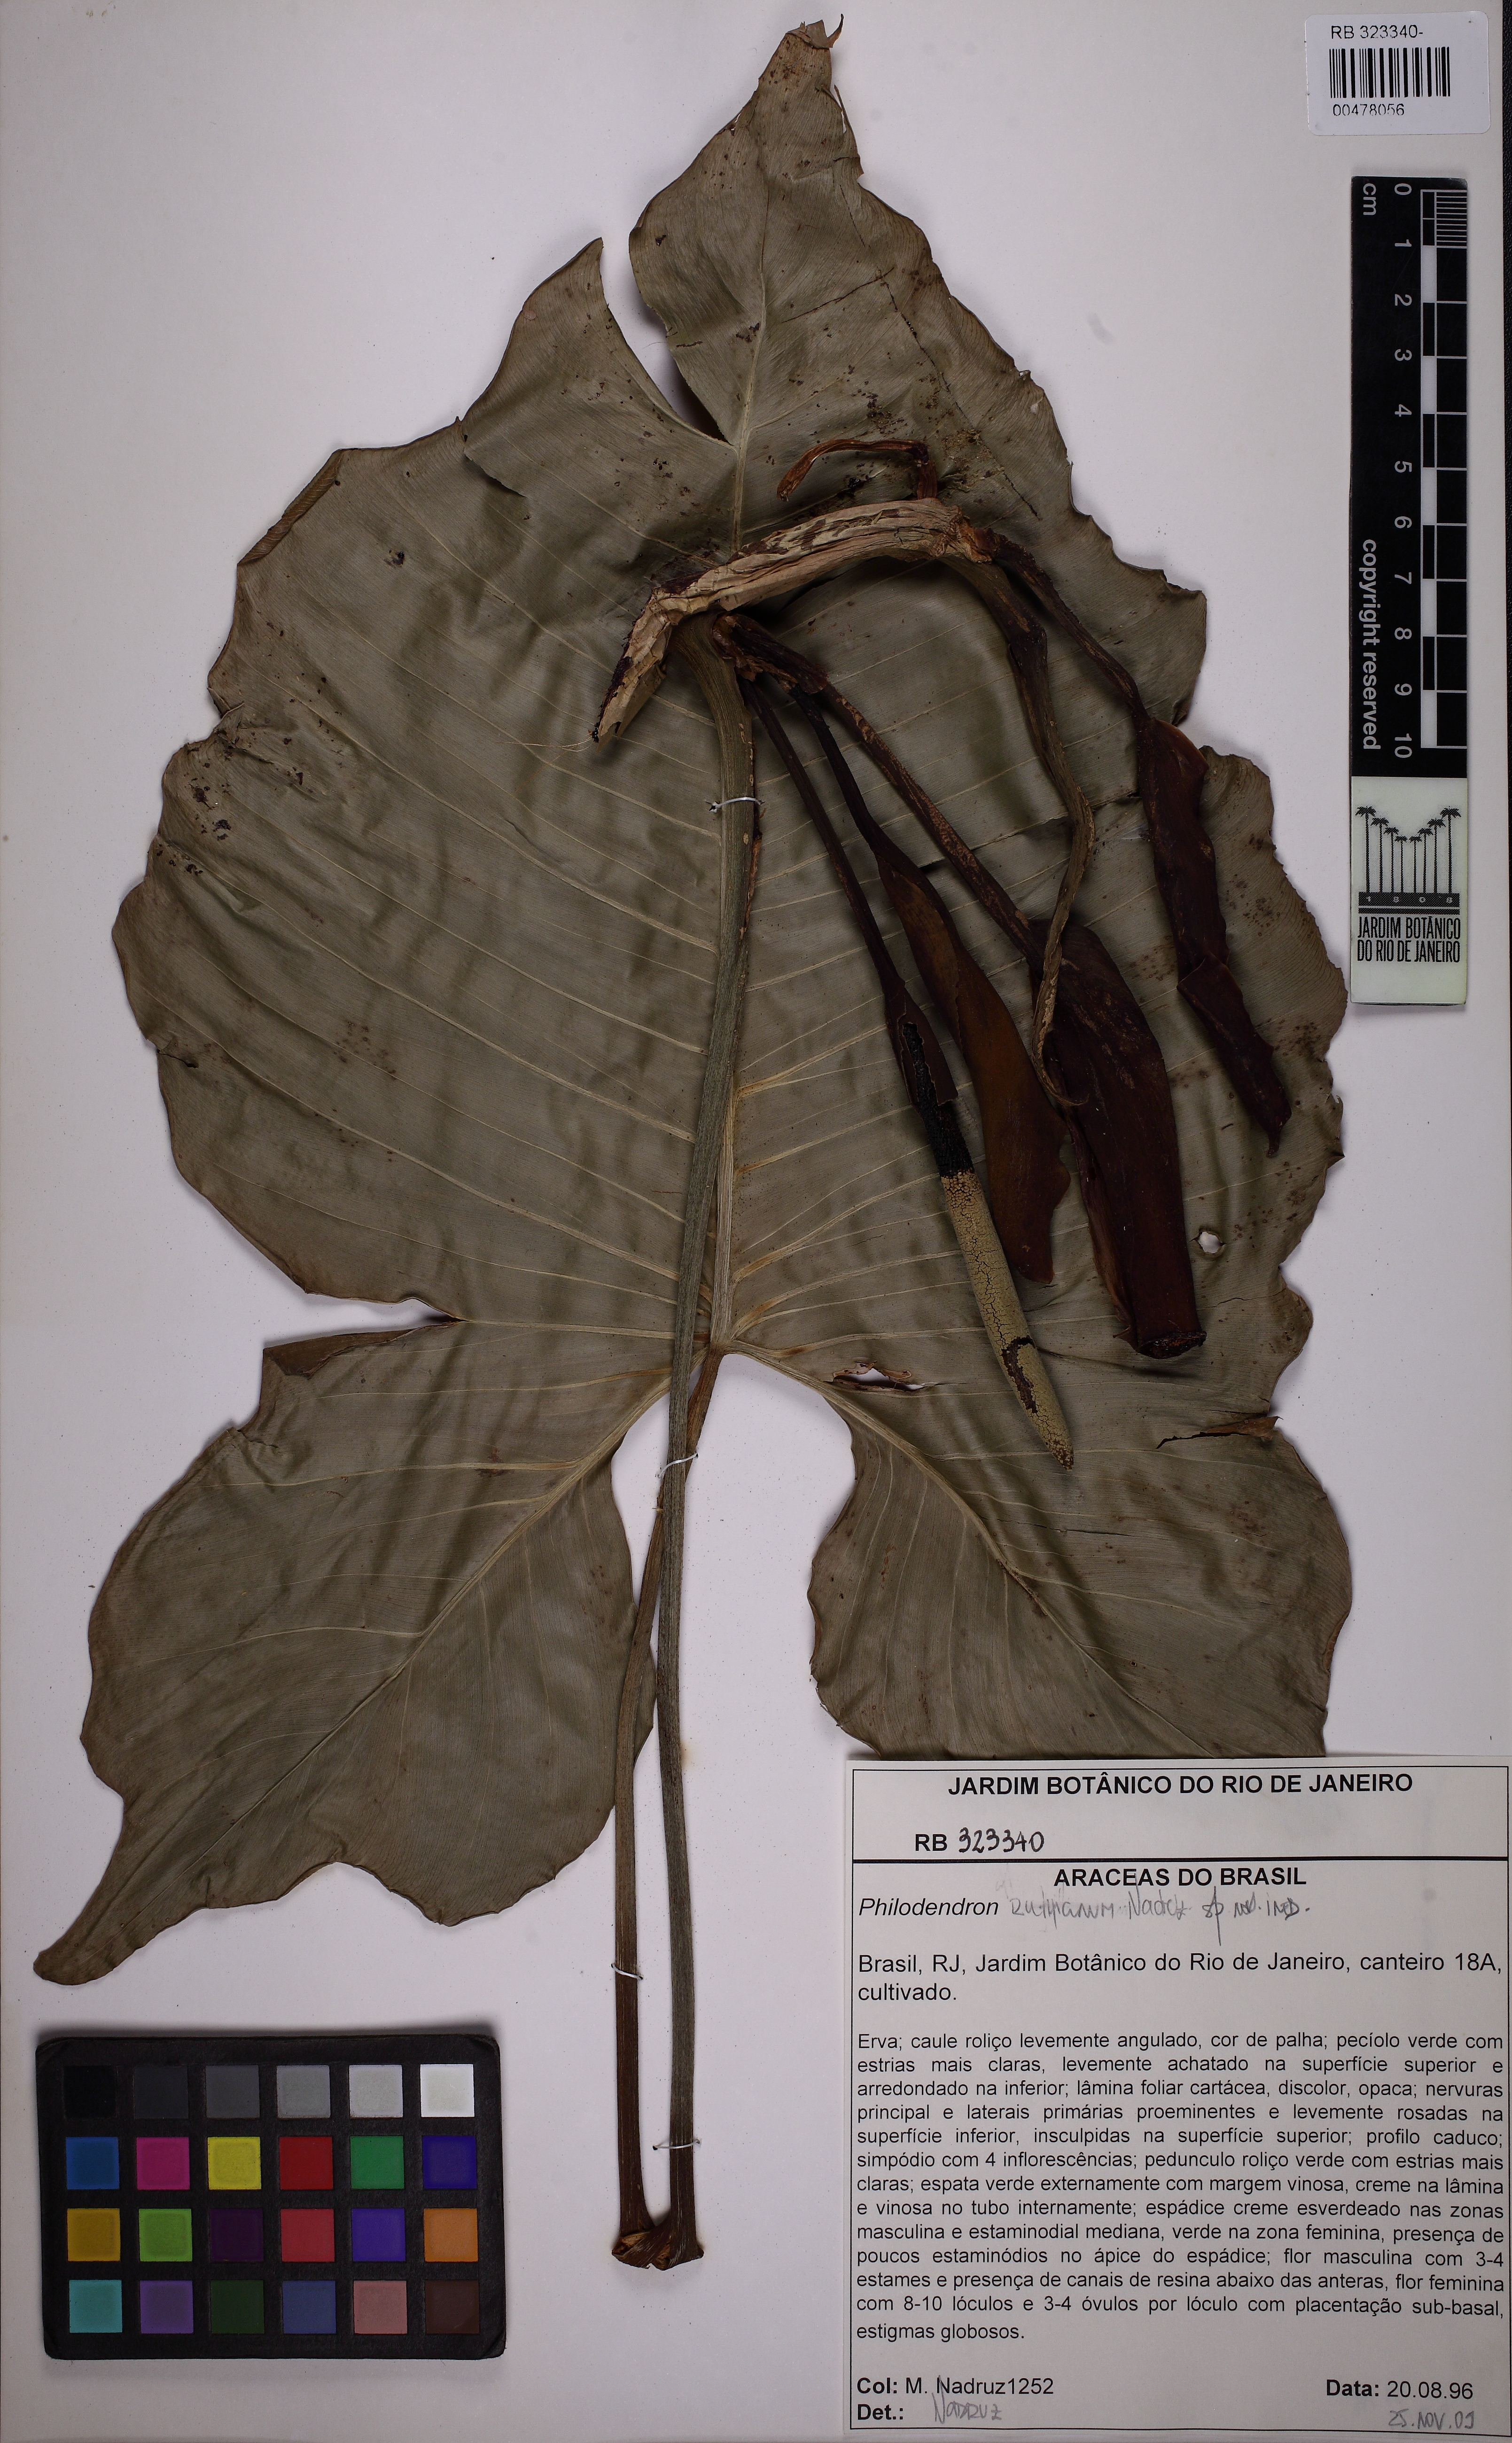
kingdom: Plantae
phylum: Tracheophyta
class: Liliopsida
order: Alismatales
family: Araceae
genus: Philodendron
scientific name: Philodendron
